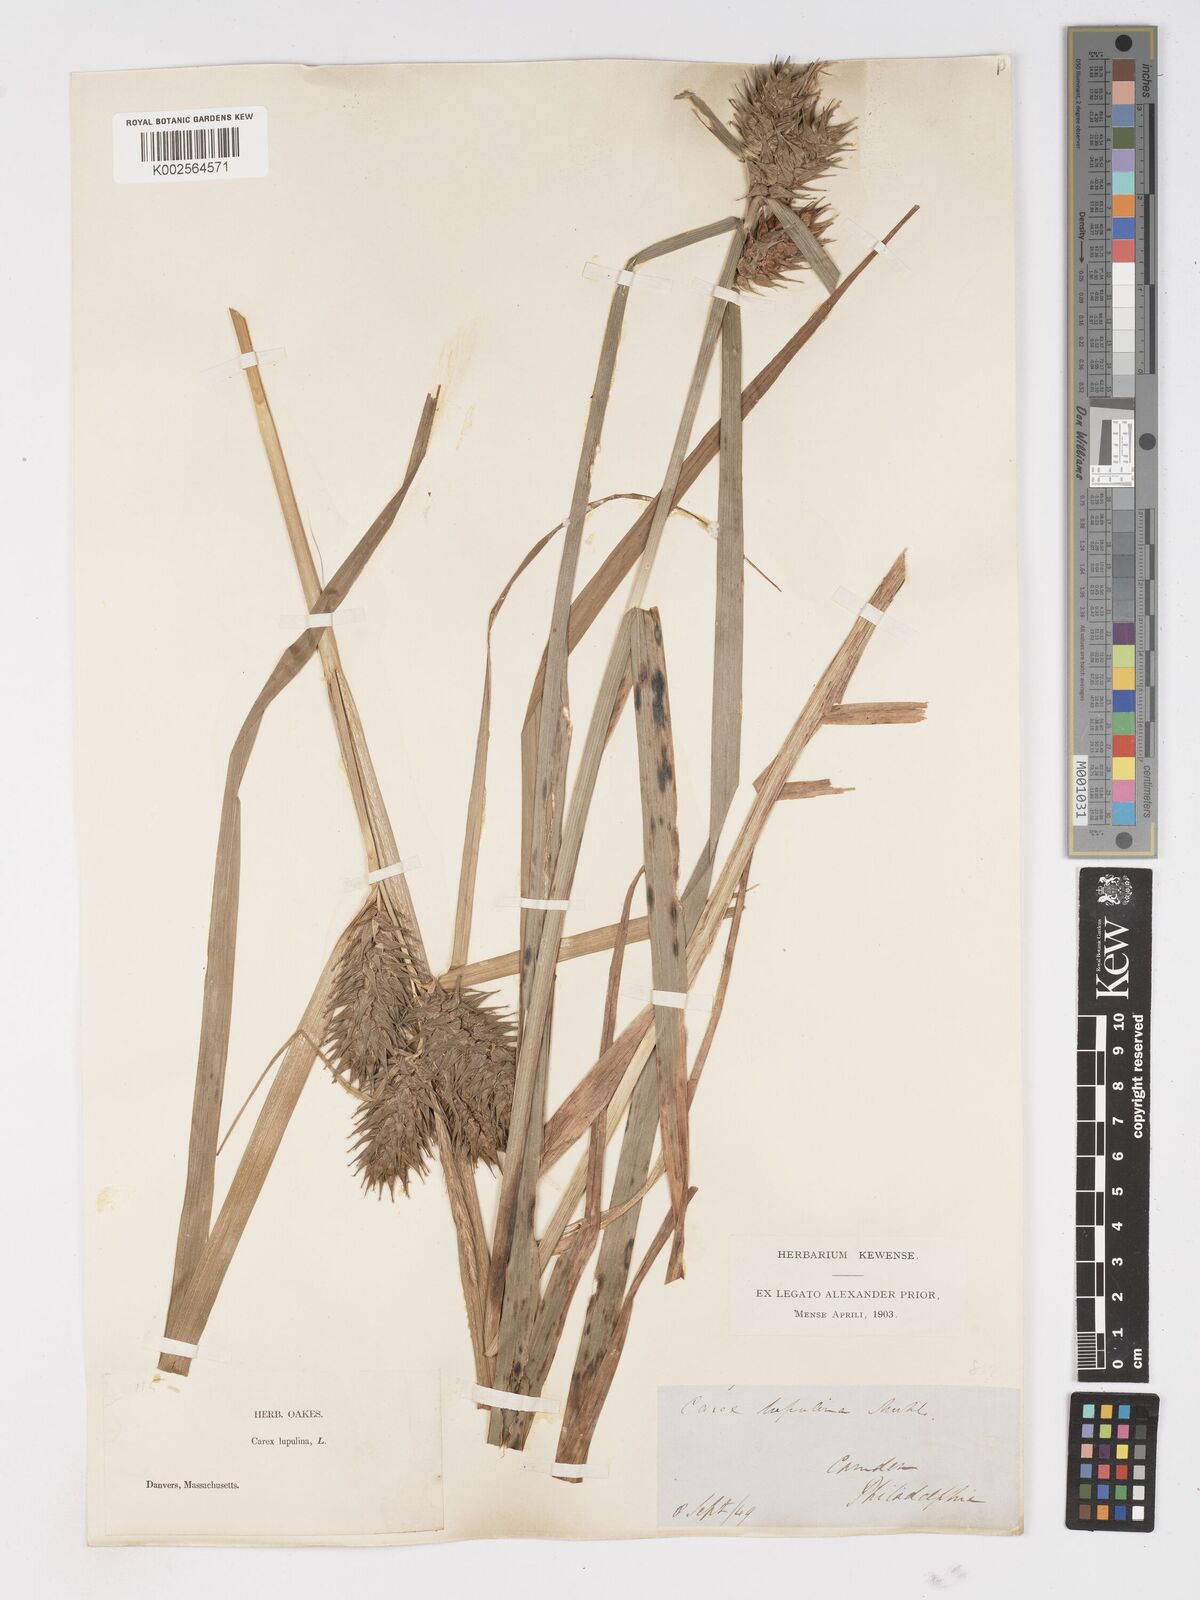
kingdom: Plantae
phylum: Tracheophyta
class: Liliopsida
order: Poales
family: Cyperaceae
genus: Carex
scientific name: Carex lupulina
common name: Hop sedge
